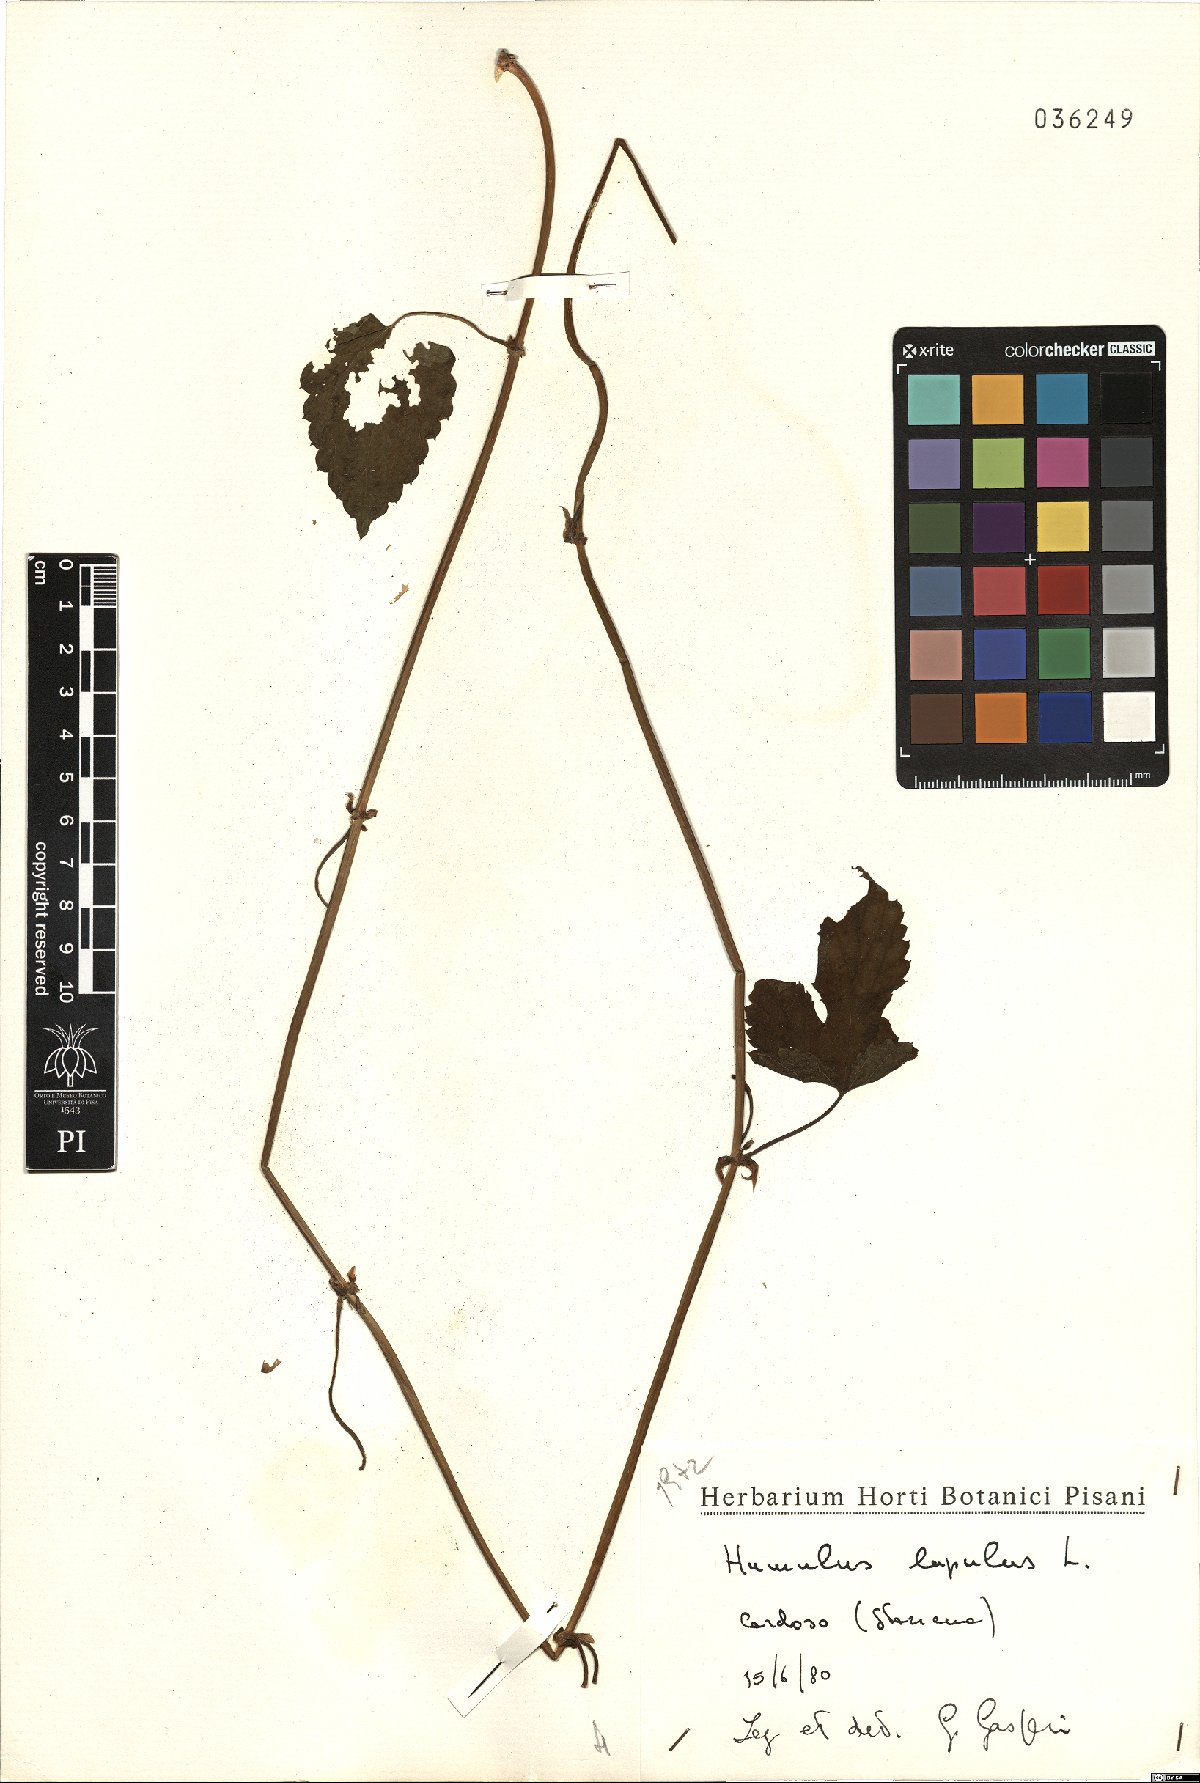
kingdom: Plantae
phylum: Tracheophyta
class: Magnoliopsida
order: Rosales
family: Cannabaceae
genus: Humulus
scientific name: Humulus lupulus
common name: Hop
